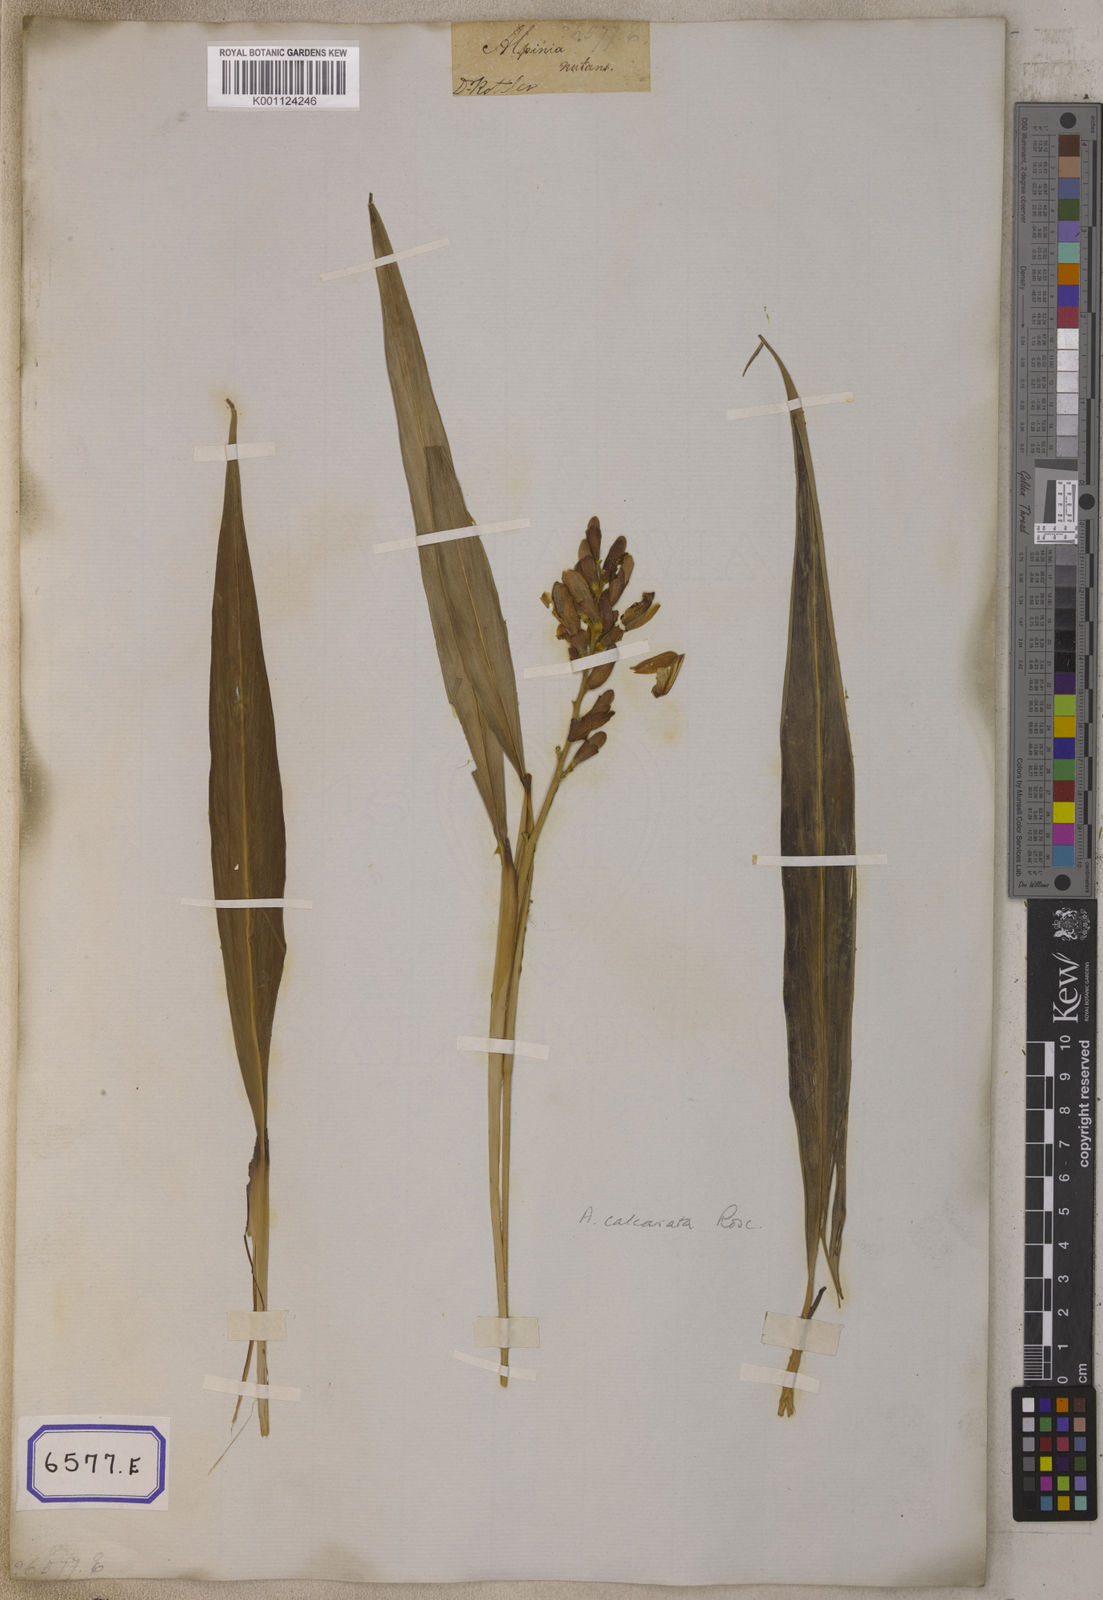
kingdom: Plantae
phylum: Tracheophyta
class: Liliopsida
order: Zingiberales
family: Zingiberaceae
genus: Alpinia
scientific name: Alpinia calcarata
